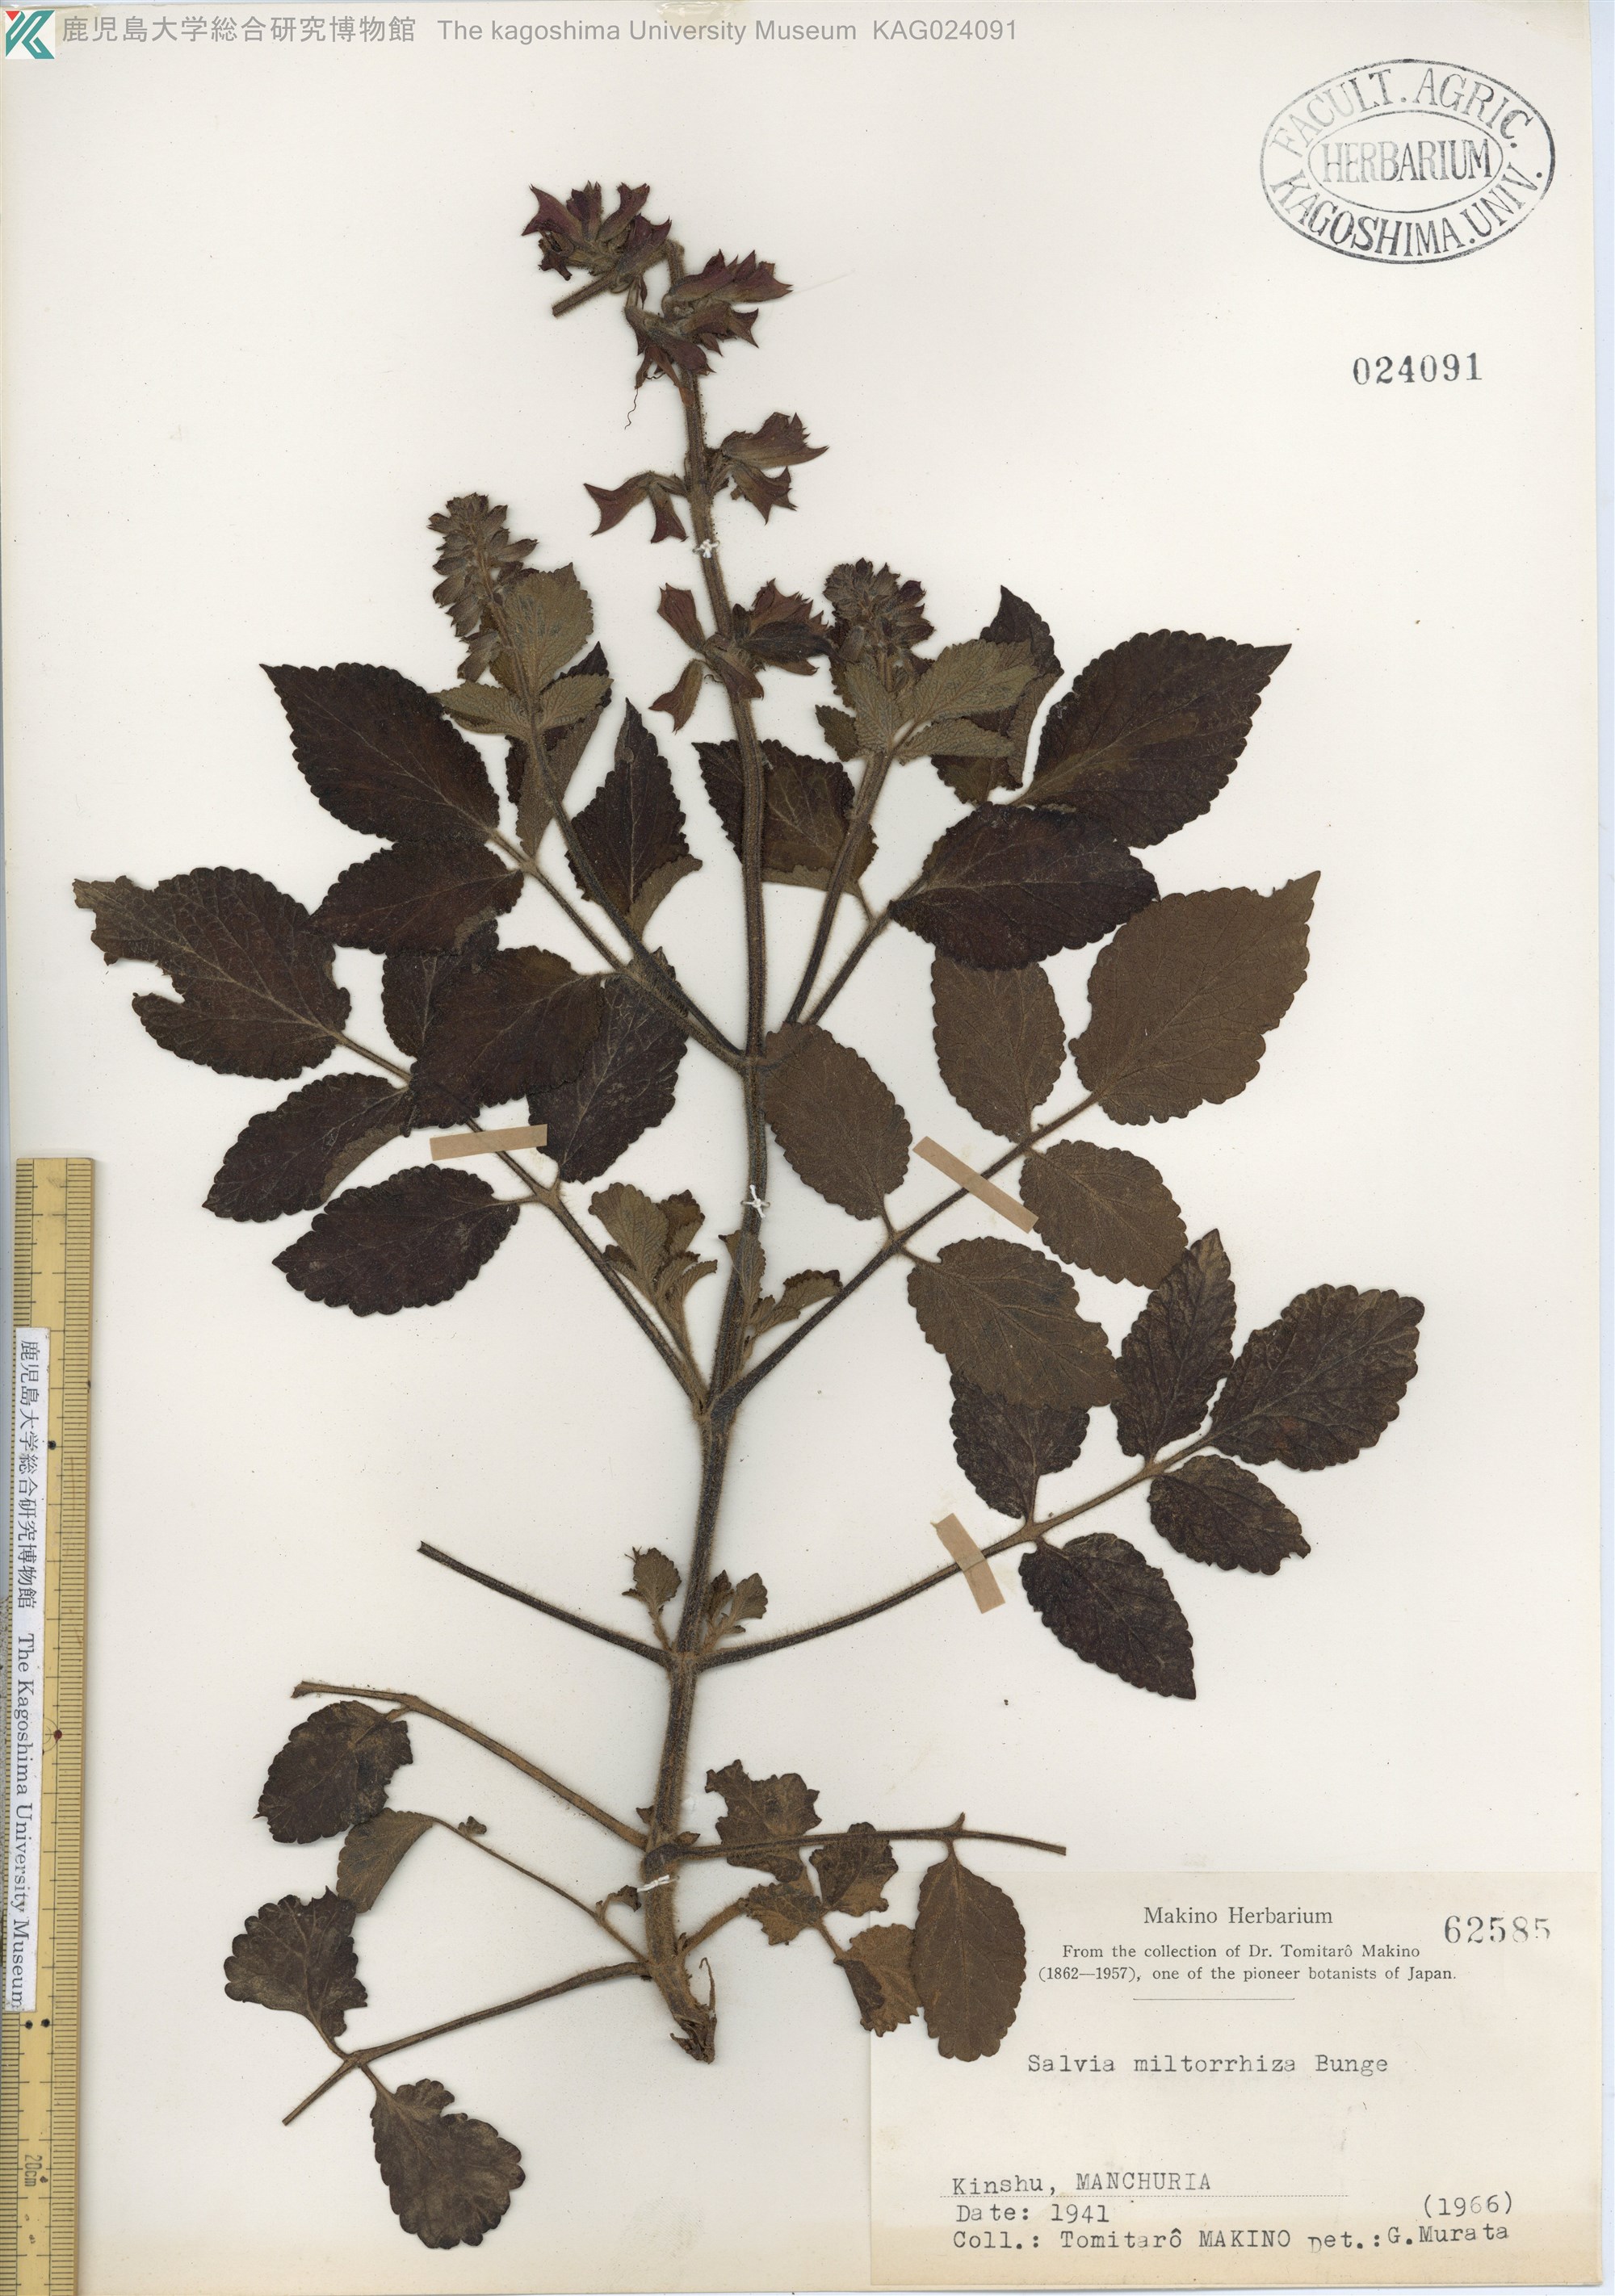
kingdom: Plantae
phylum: Tracheophyta
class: Magnoliopsida
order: Lamiales
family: Lamiaceae
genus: Salvia
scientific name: Salvia miltiorrhiza
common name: Redroot sage
